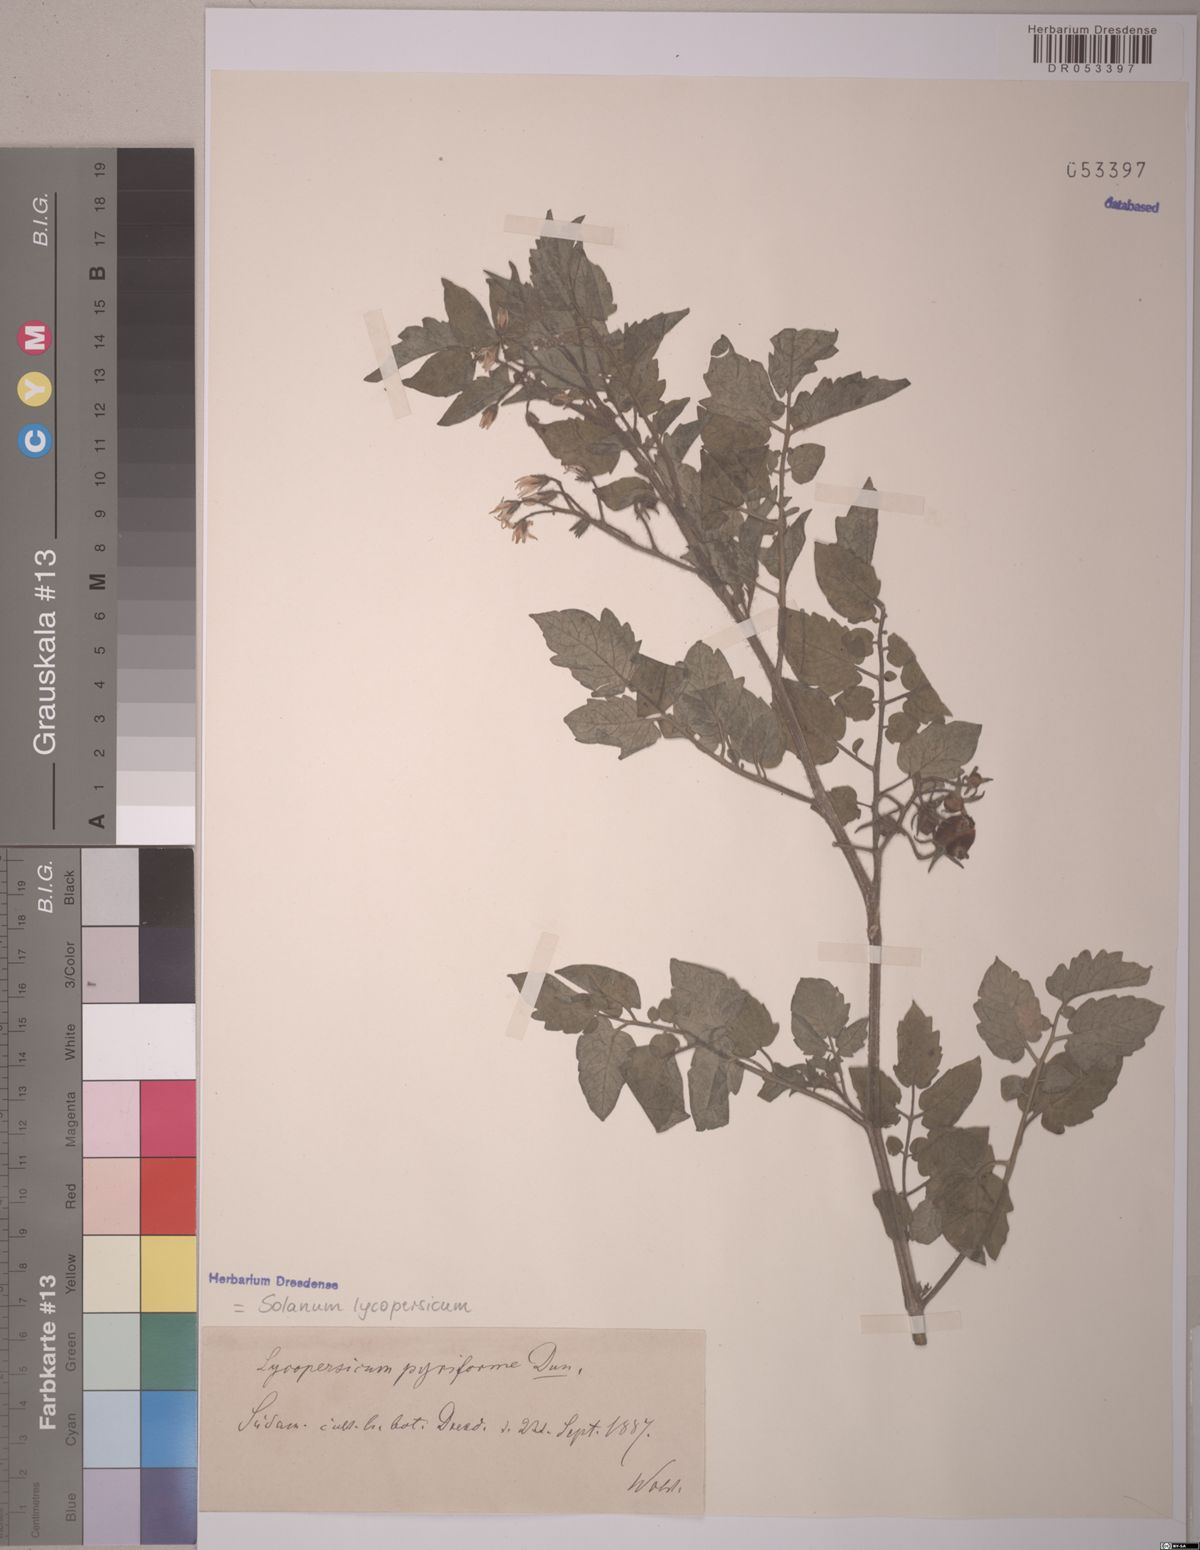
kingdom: Plantae
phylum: Tracheophyta
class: Magnoliopsida
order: Solanales
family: Solanaceae
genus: Solanum
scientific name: Solanum lycopersicum
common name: Garden tomato
